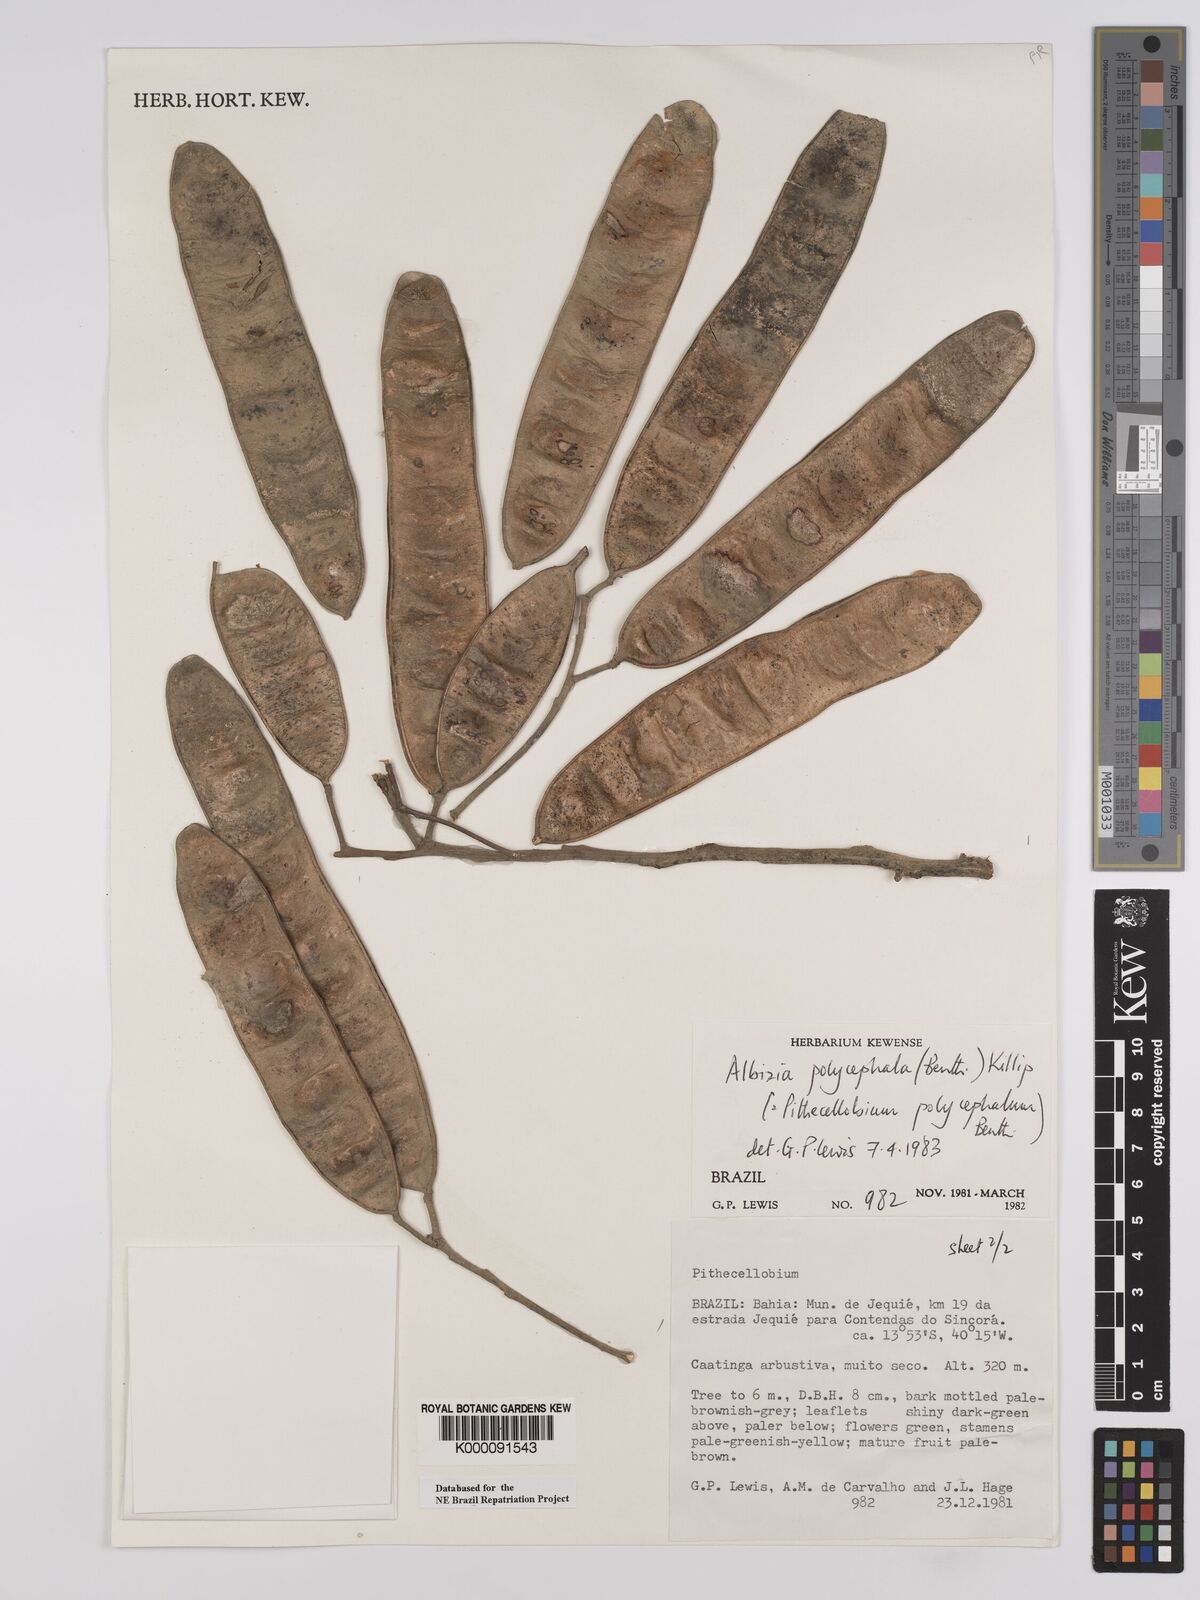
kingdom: Plantae
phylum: Tracheophyta
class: Magnoliopsida
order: Fabales
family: Fabaceae
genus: Albizia
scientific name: Albizia polycephala
